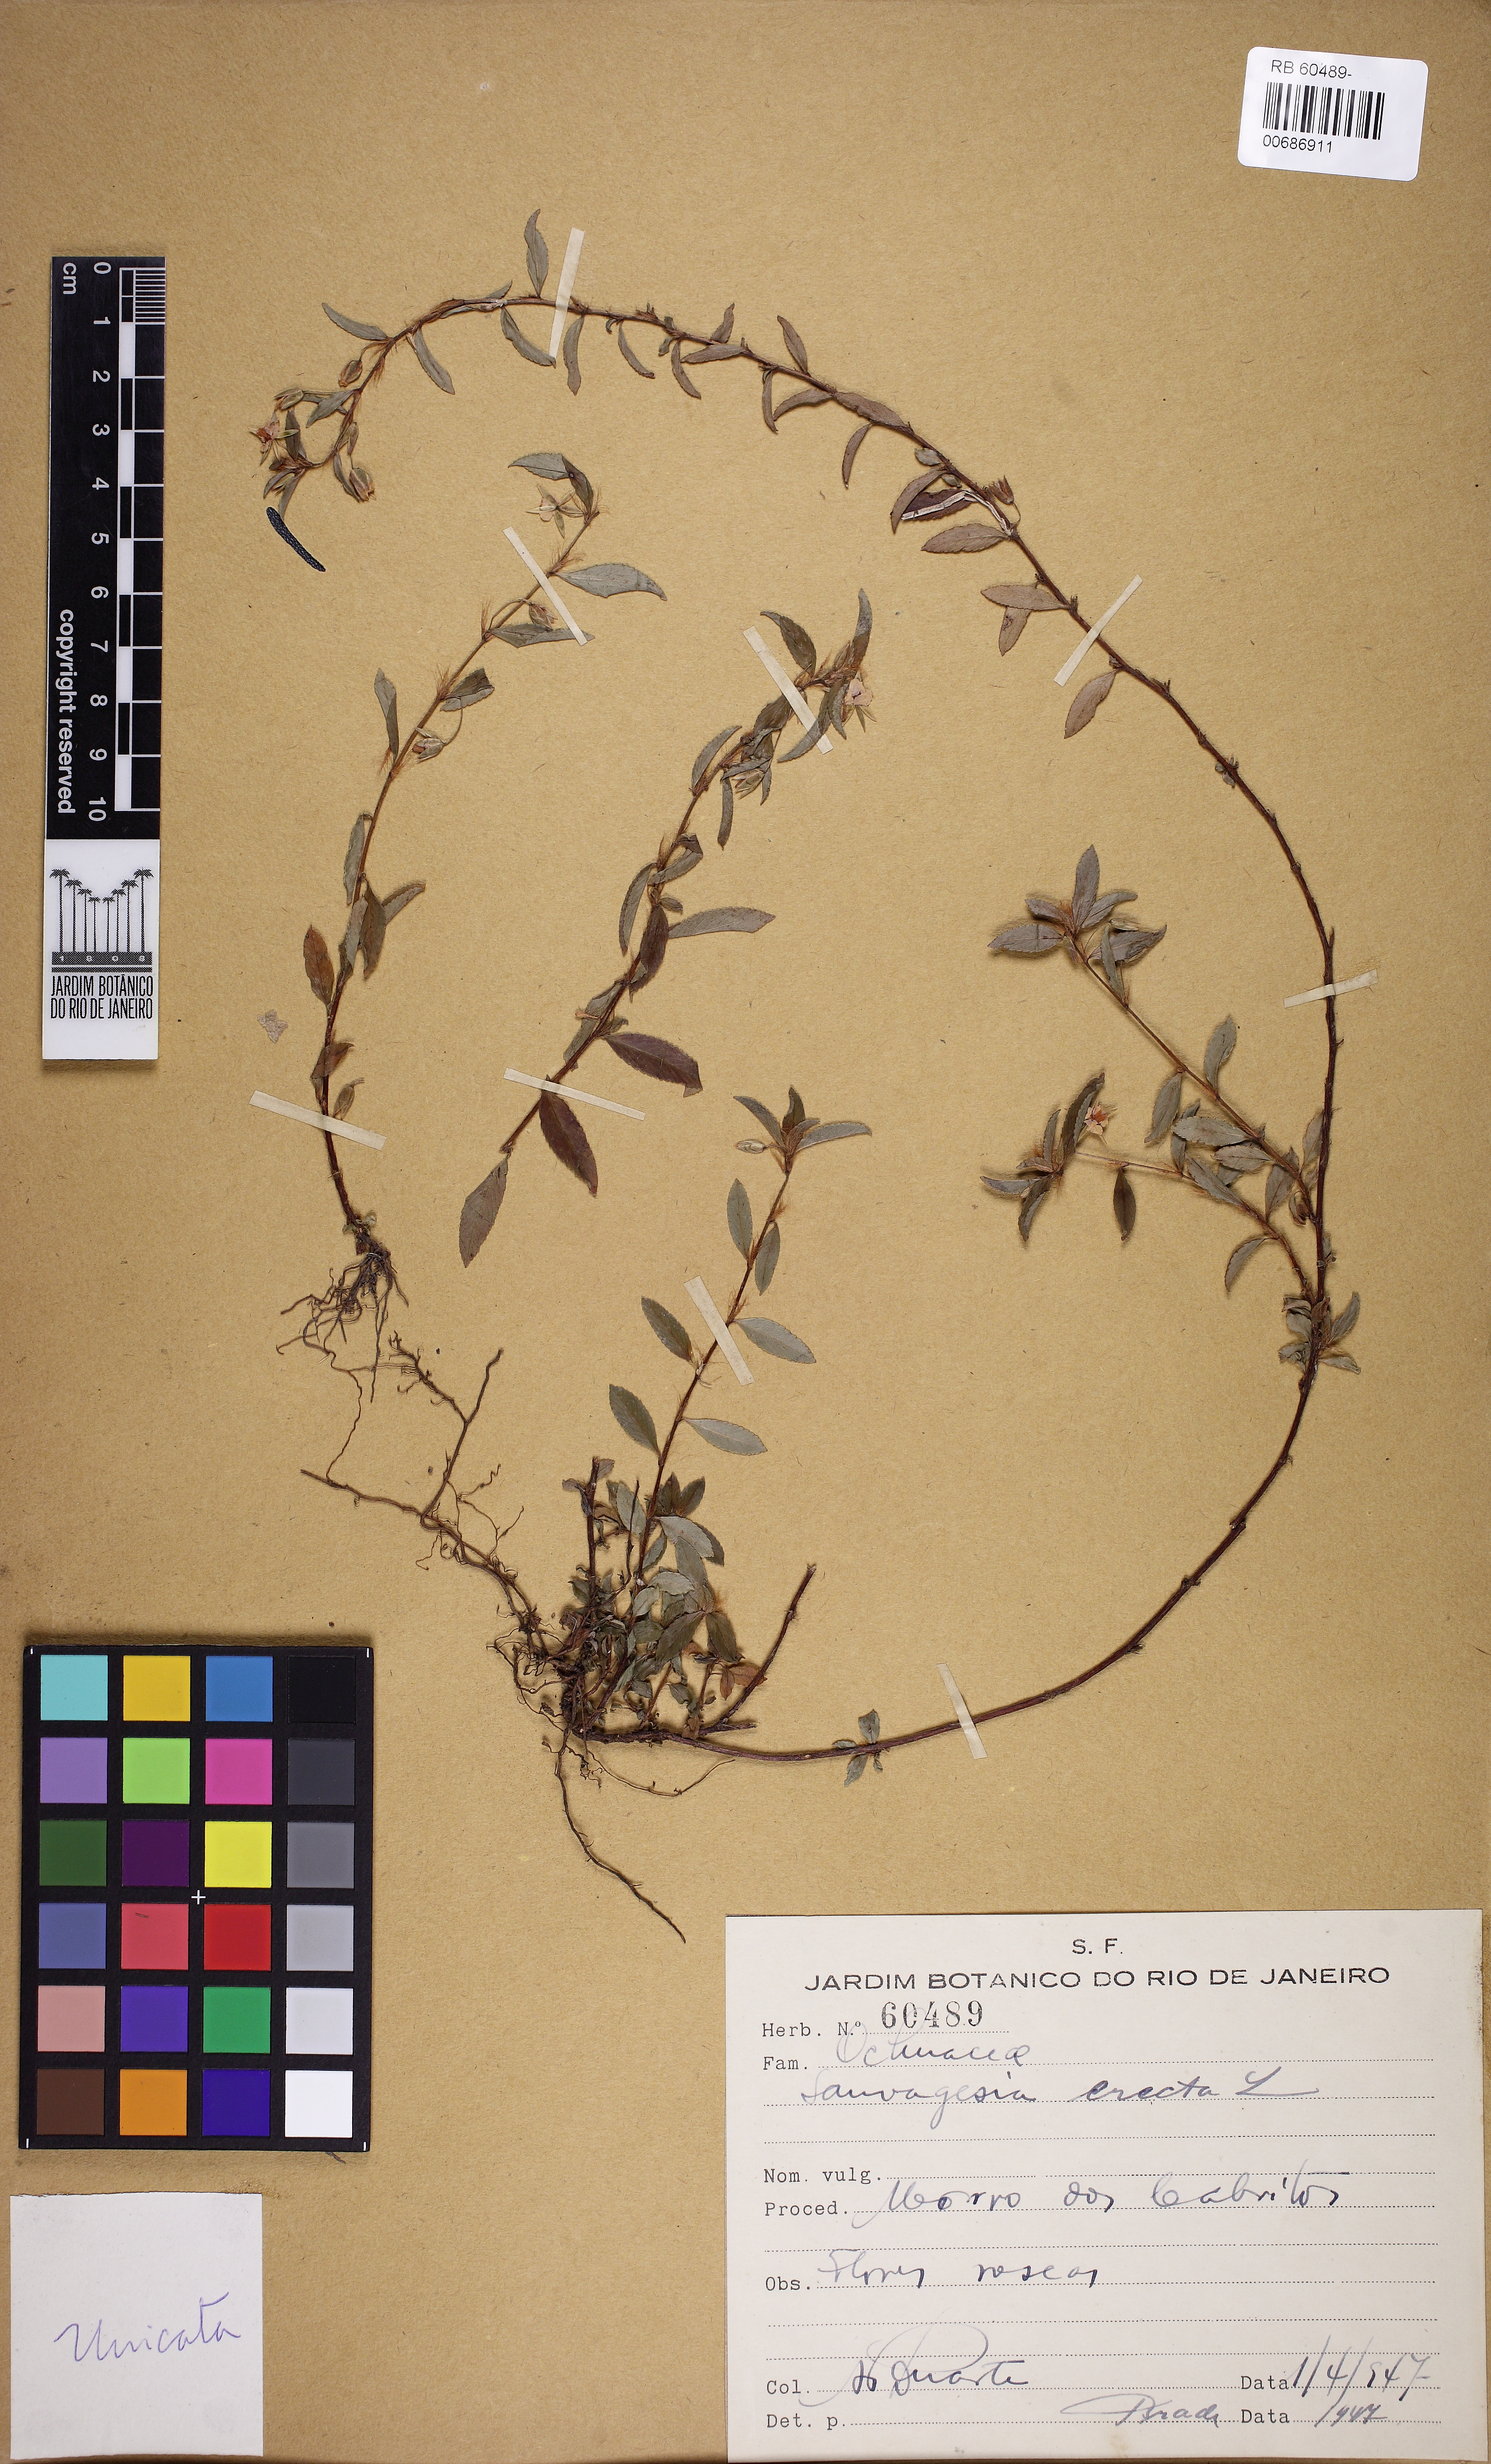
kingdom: Plantae
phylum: Tracheophyta
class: Magnoliopsida
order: Malpighiales
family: Ochnaceae
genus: Sauvagesia
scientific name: Sauvagesia erecta
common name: Creole tea
